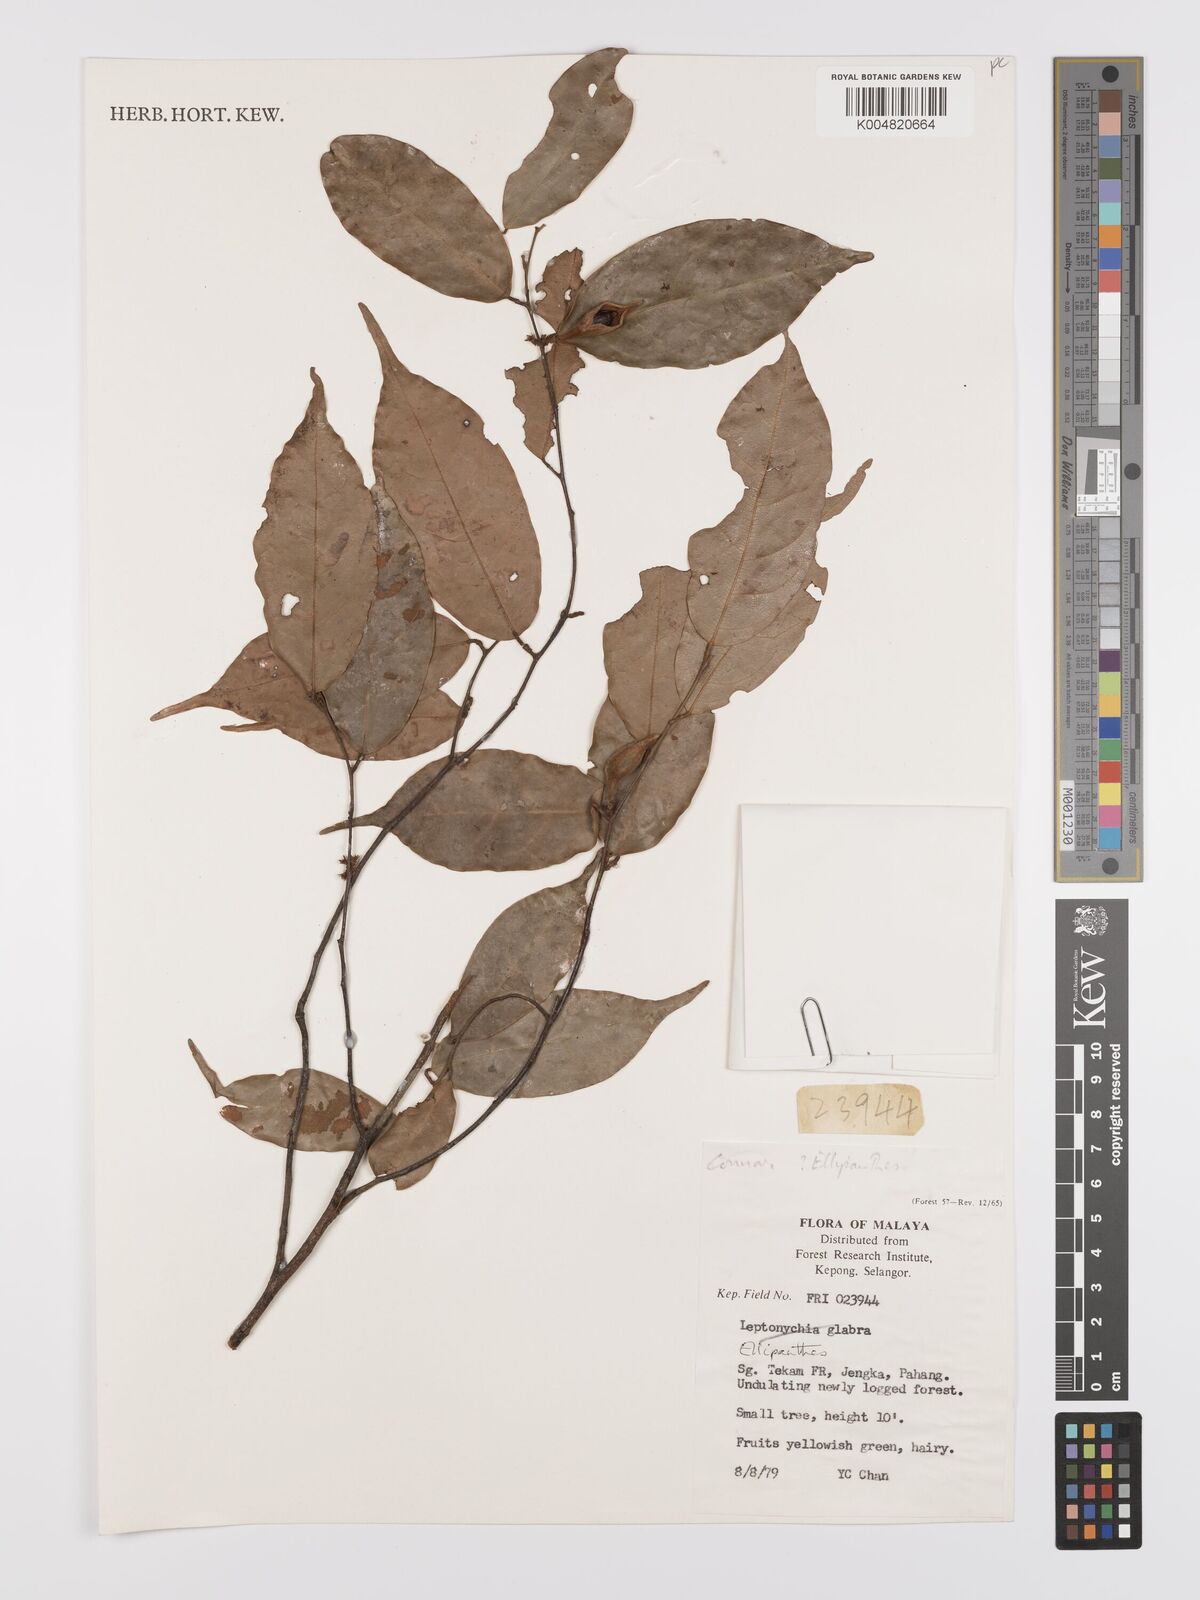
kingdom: Plantae
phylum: Tracheophyta
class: Magnoliopsida
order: Oxalidales
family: Connaraceae
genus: Ellipanthus
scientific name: Ellipanthus
